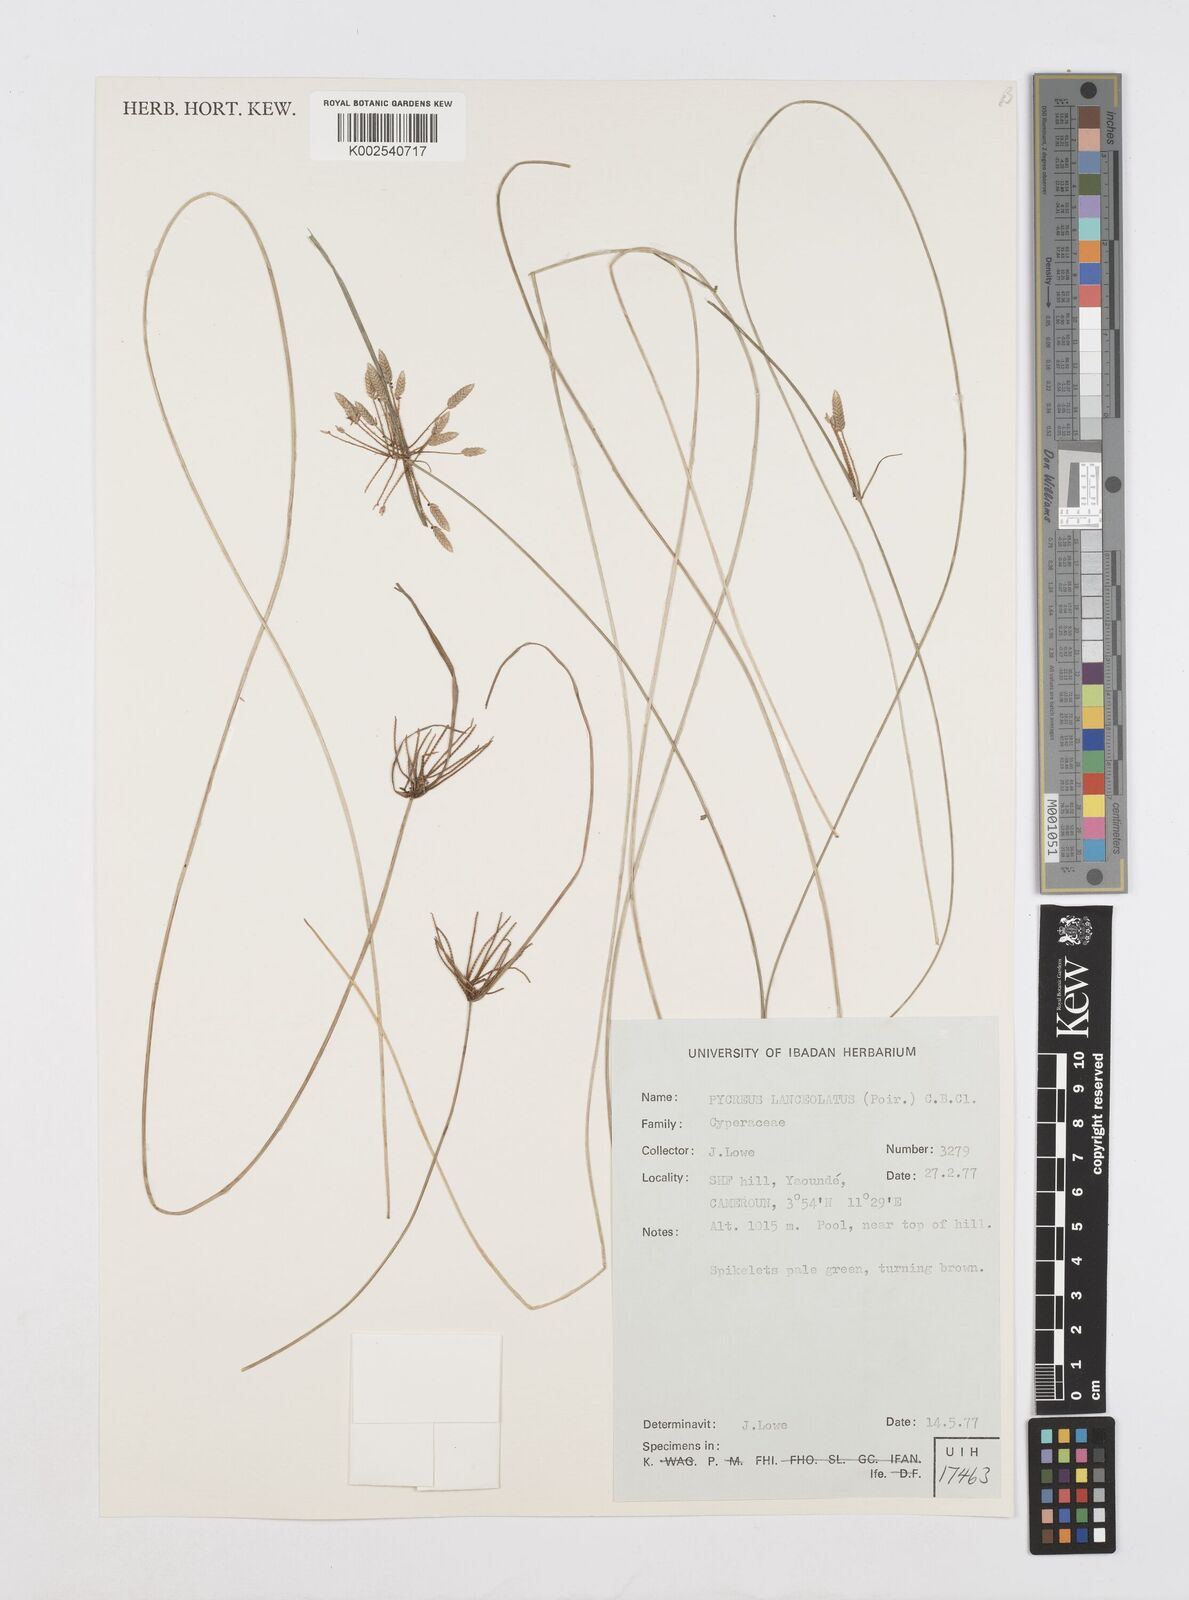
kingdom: Plantae
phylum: Tracheophyta
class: Liliopsida
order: Poales
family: Cyperaceae
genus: Cyperus
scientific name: Cyperus
